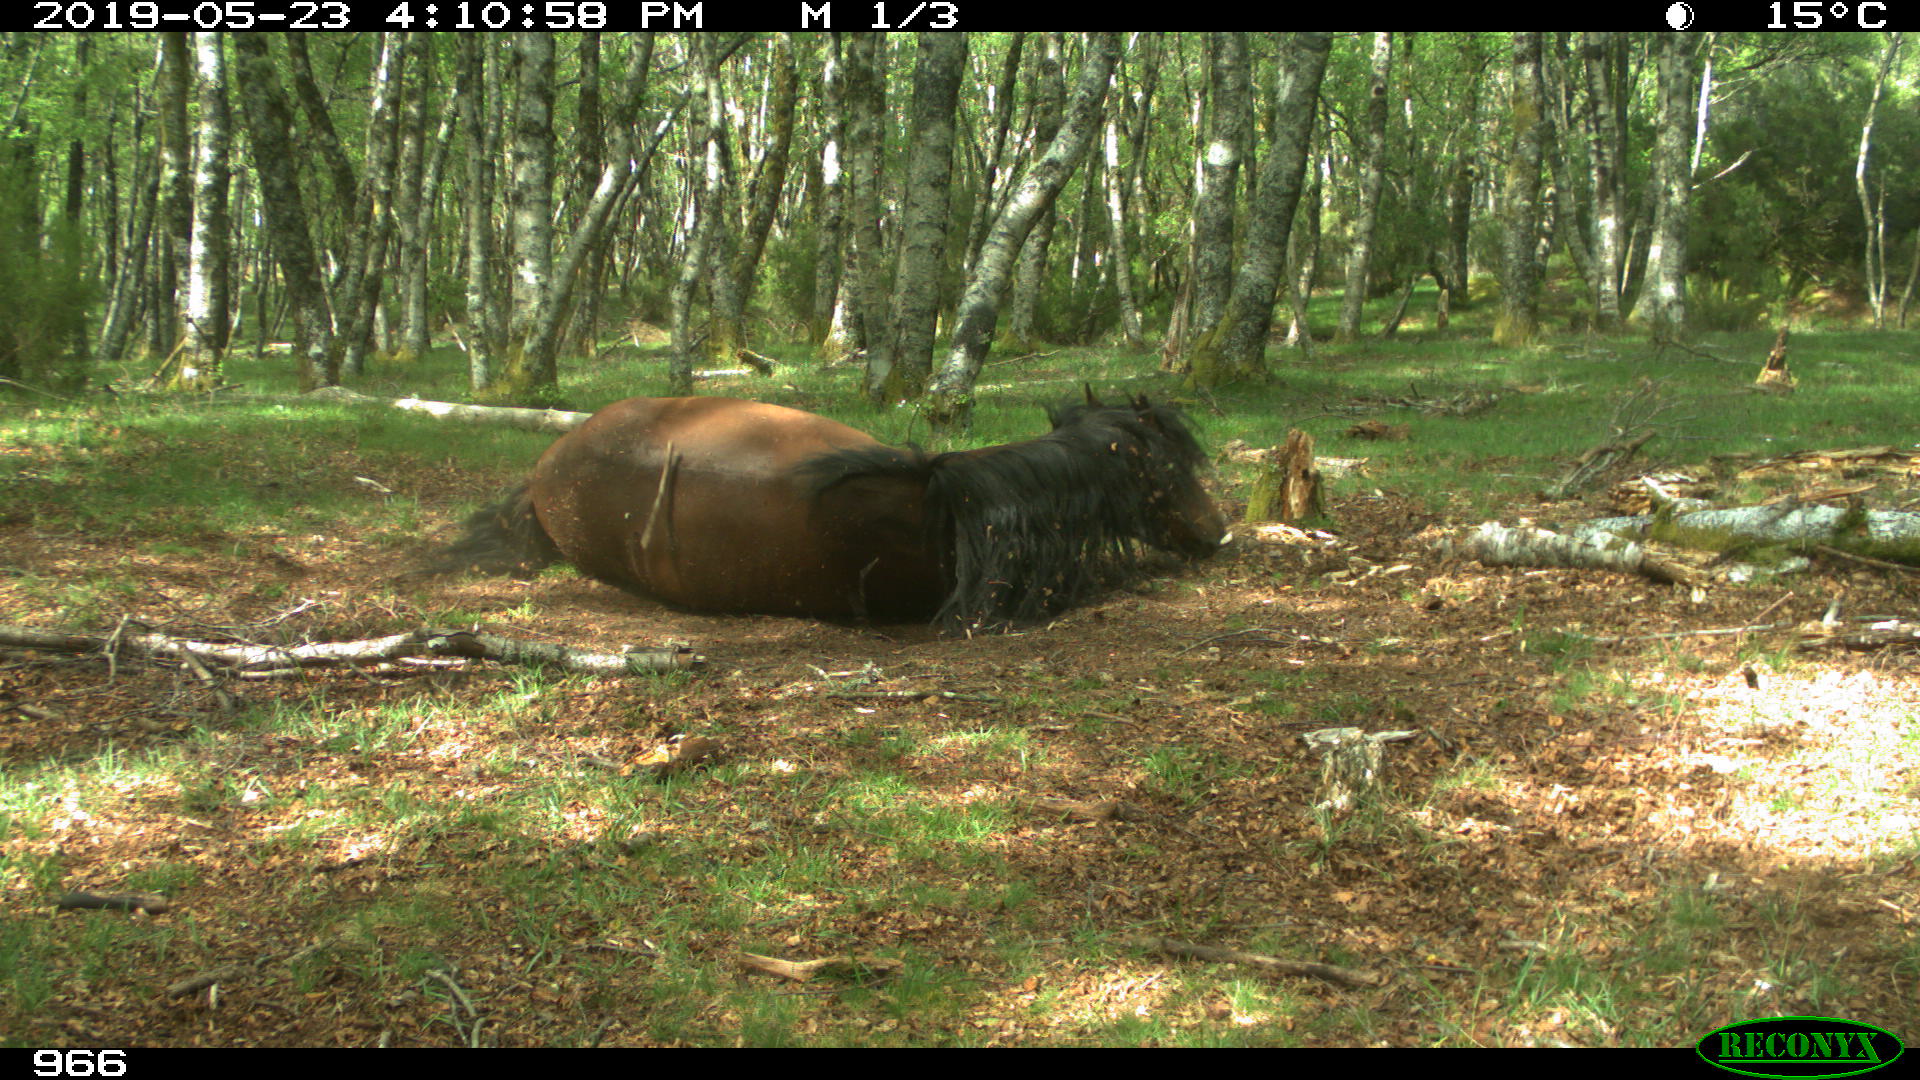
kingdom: Animalia
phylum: Chordata
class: Mammalia
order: Perissodactyla
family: Equidae
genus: Equus
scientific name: Equus caballus
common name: Horse
